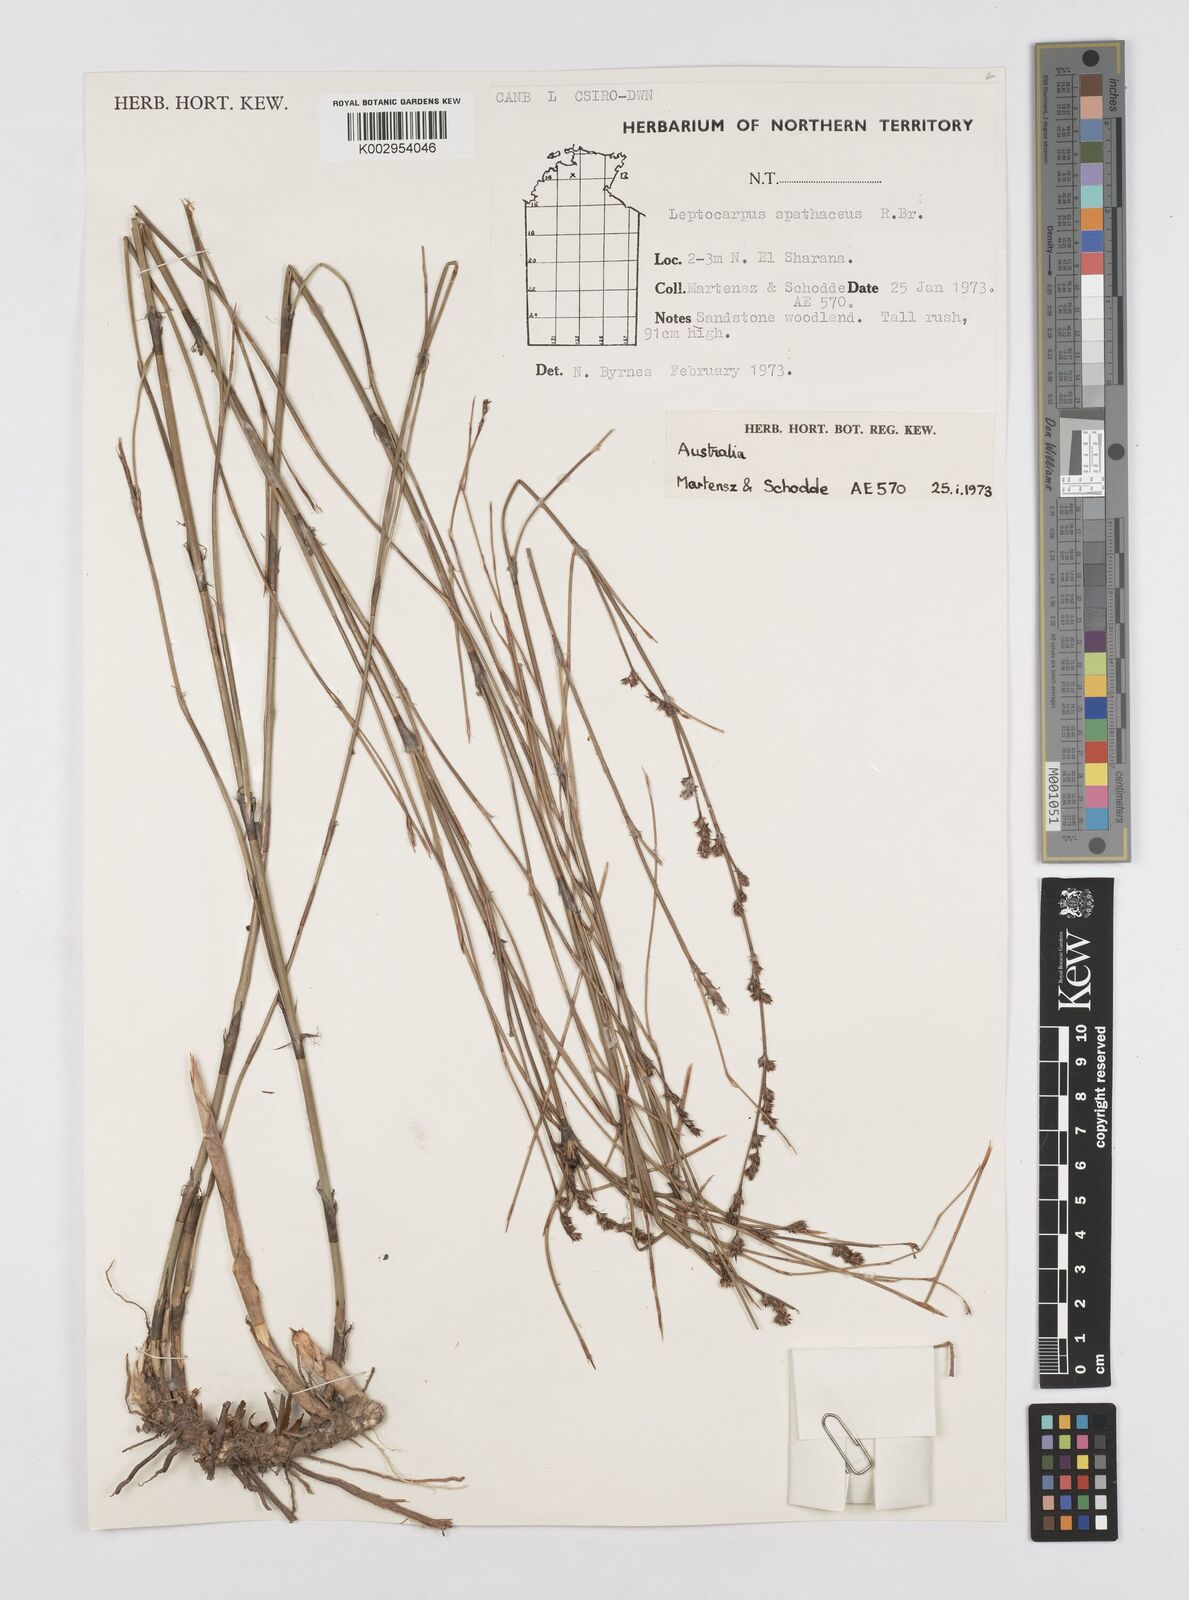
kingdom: Plantae
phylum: Tracheophyta
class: Liliopsida
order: Poales
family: Restionaceae
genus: Dapsilanthus
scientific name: Dapsilanthus spathaceus
